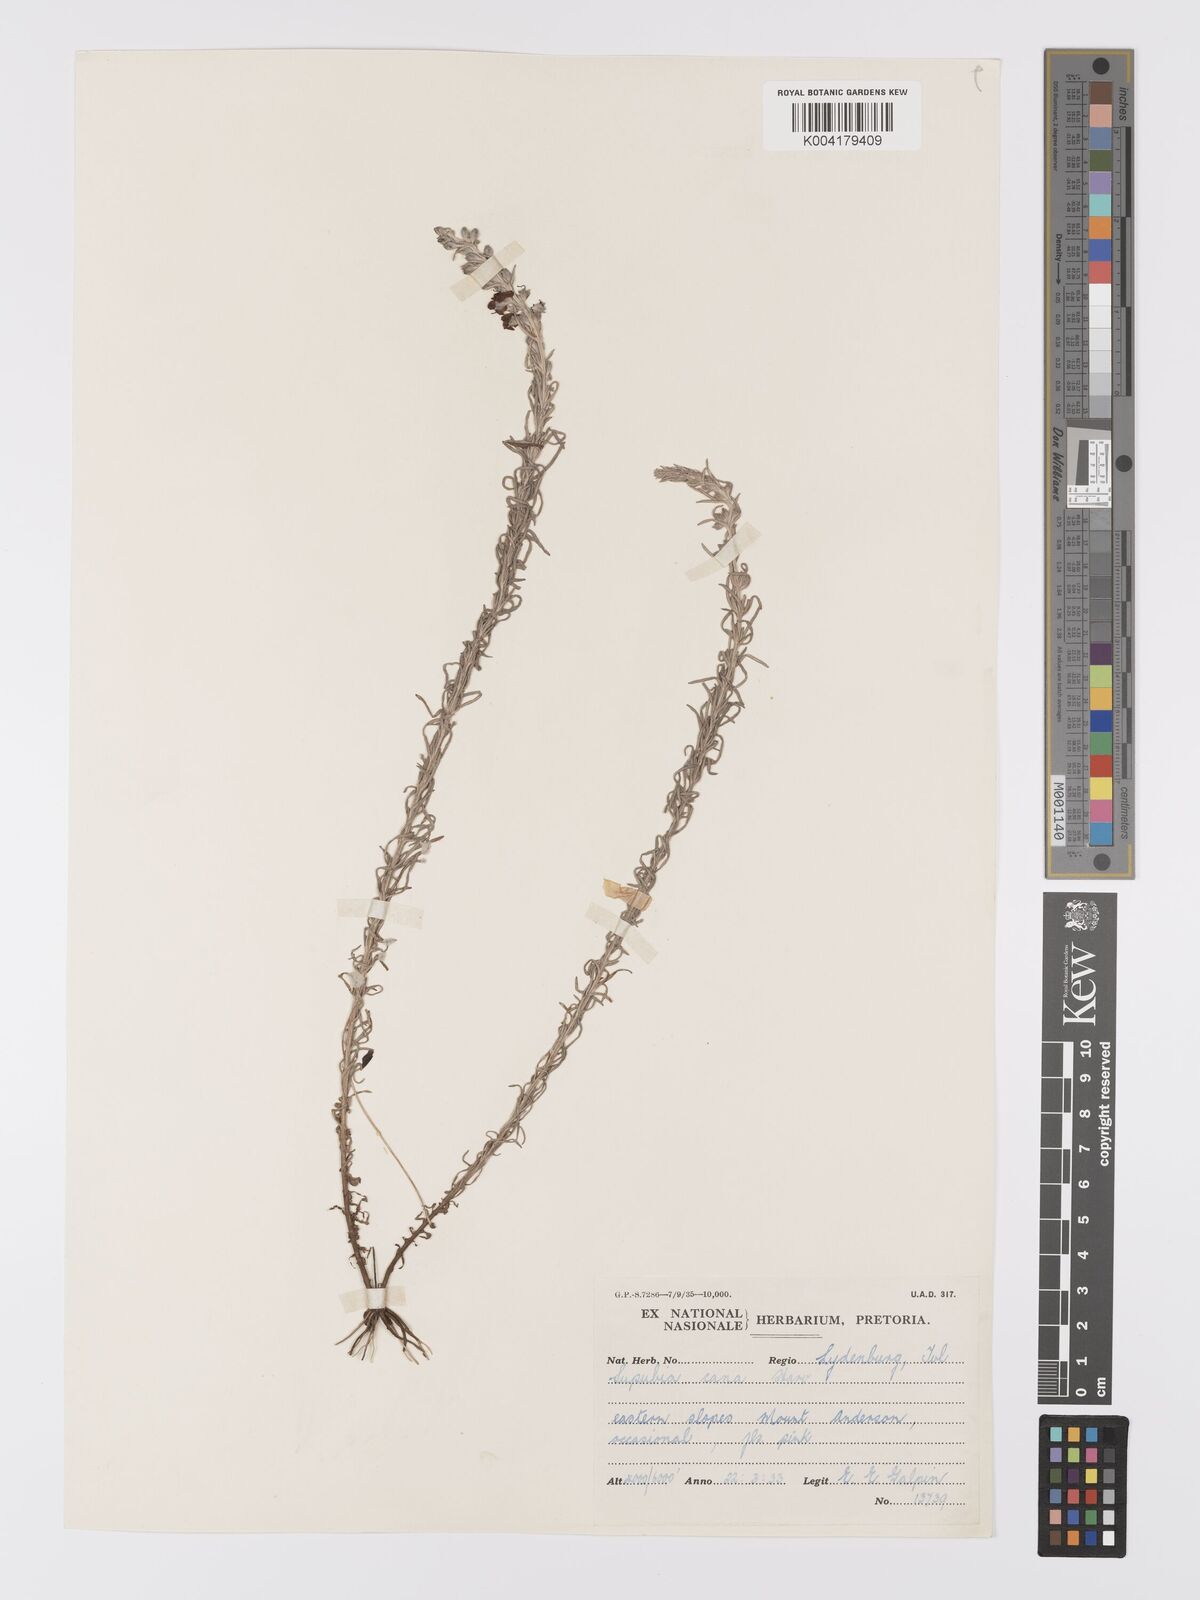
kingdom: Plantae
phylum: Tracheophyta
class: Magnoliopsida
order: Lamiales
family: Orobanchaceae
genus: Sopubia
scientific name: Sopubia cana
